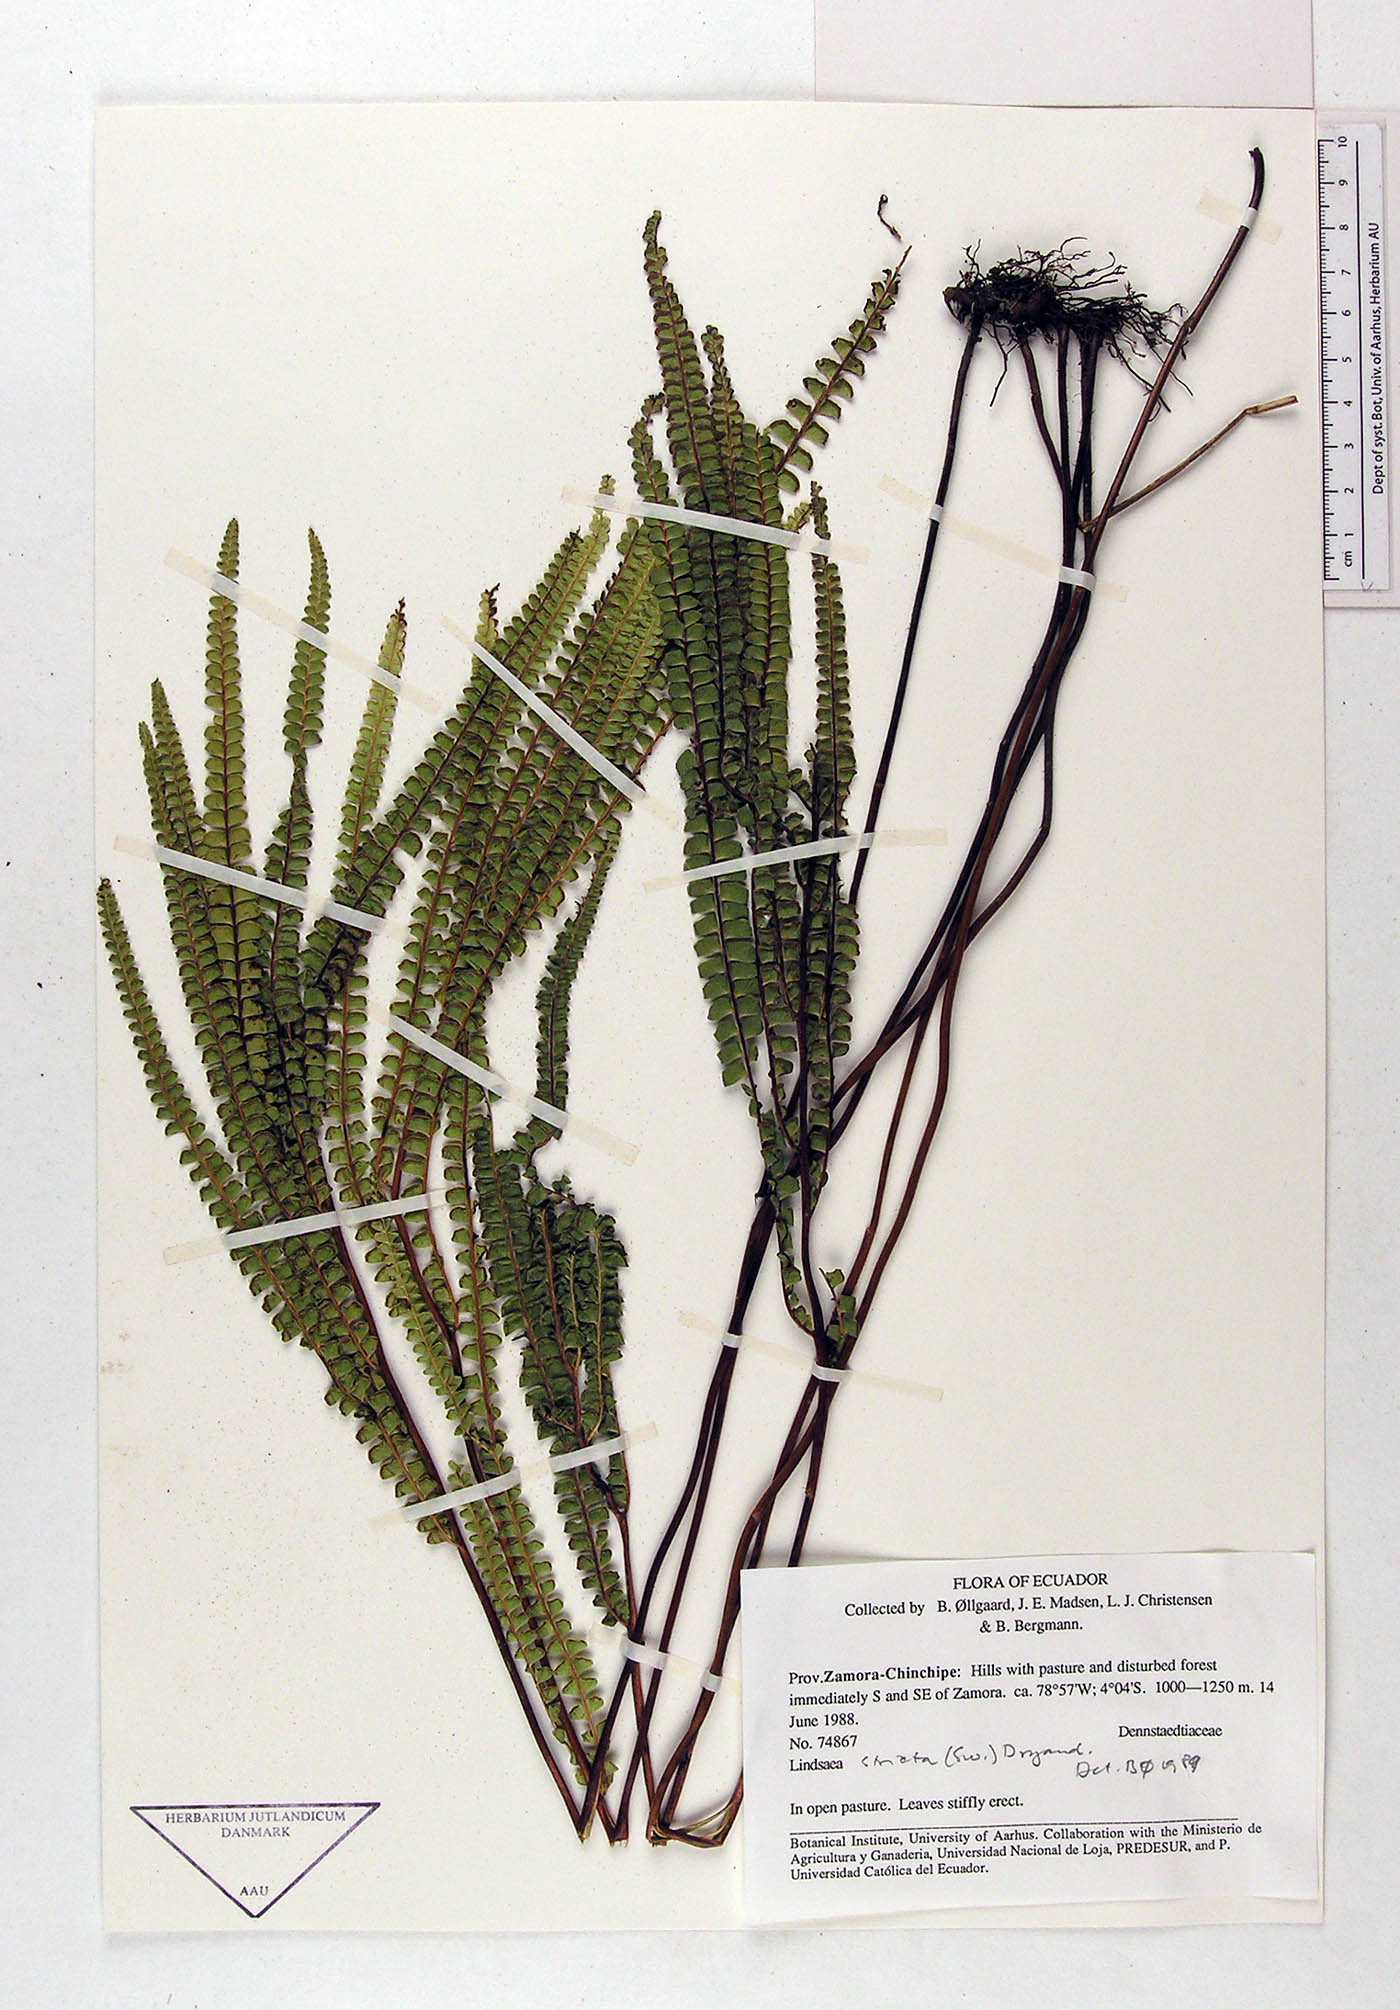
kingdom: Plantae
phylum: Tracheophyta
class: Polypodiopsida
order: Polypodiales
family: Lindsaeaceae
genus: Lindsaea
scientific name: Lindsaea stricta
